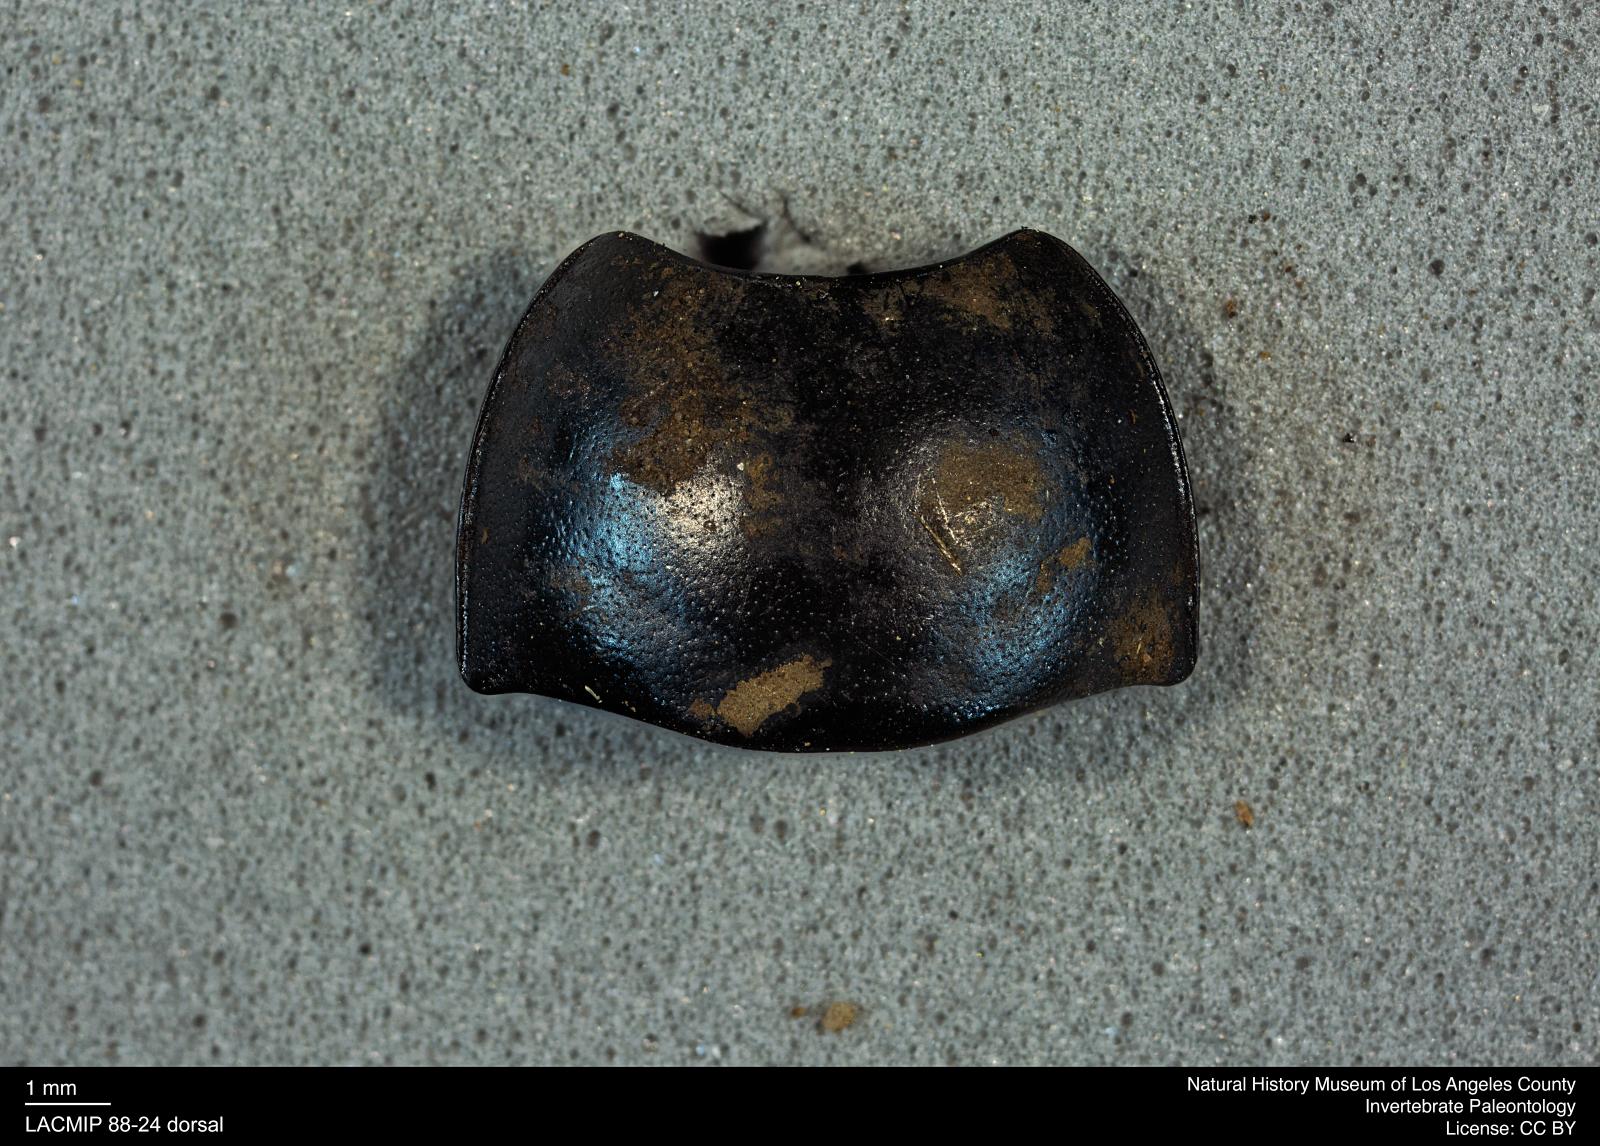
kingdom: Animalia
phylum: Arthropoda
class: Insecta
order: Coleoptera
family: Tenebrionidae
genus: Coniontis
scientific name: Coniontis abdominalis
